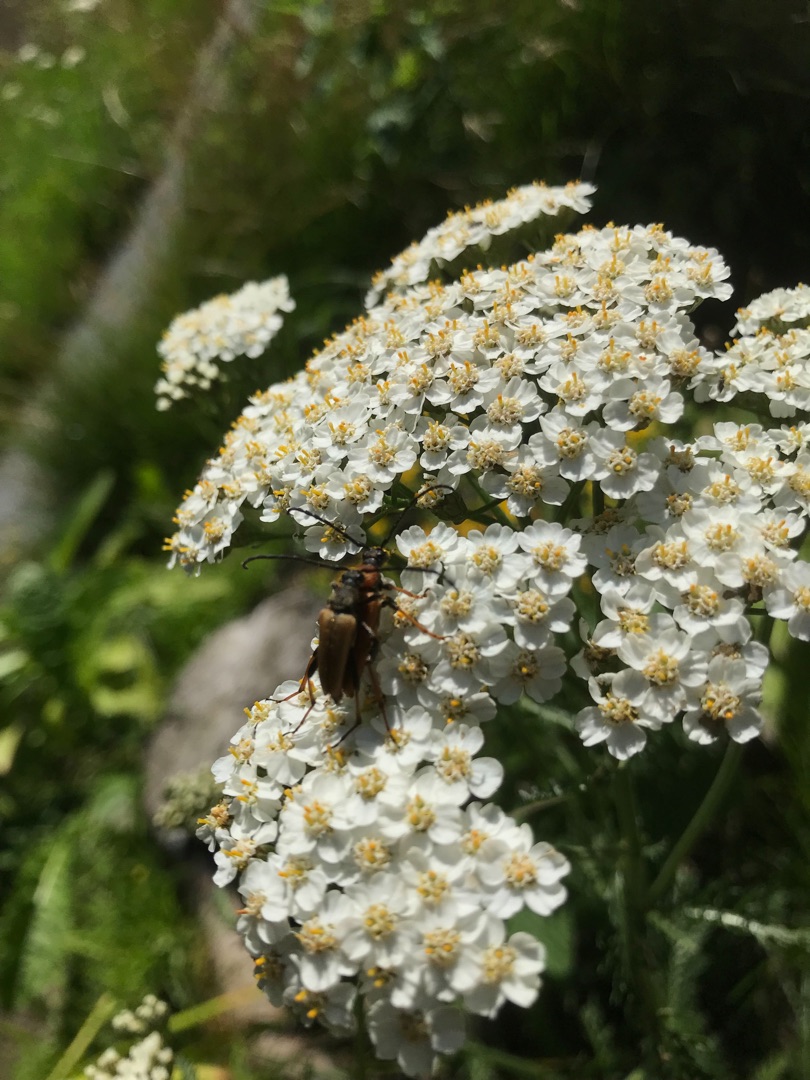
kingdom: Animalia
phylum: Arthropoda
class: Insecta
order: Coleoptera
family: Cerambycidae
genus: Stictoleptura
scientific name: Stictoleptura rubra
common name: Rød blomsterbuk
